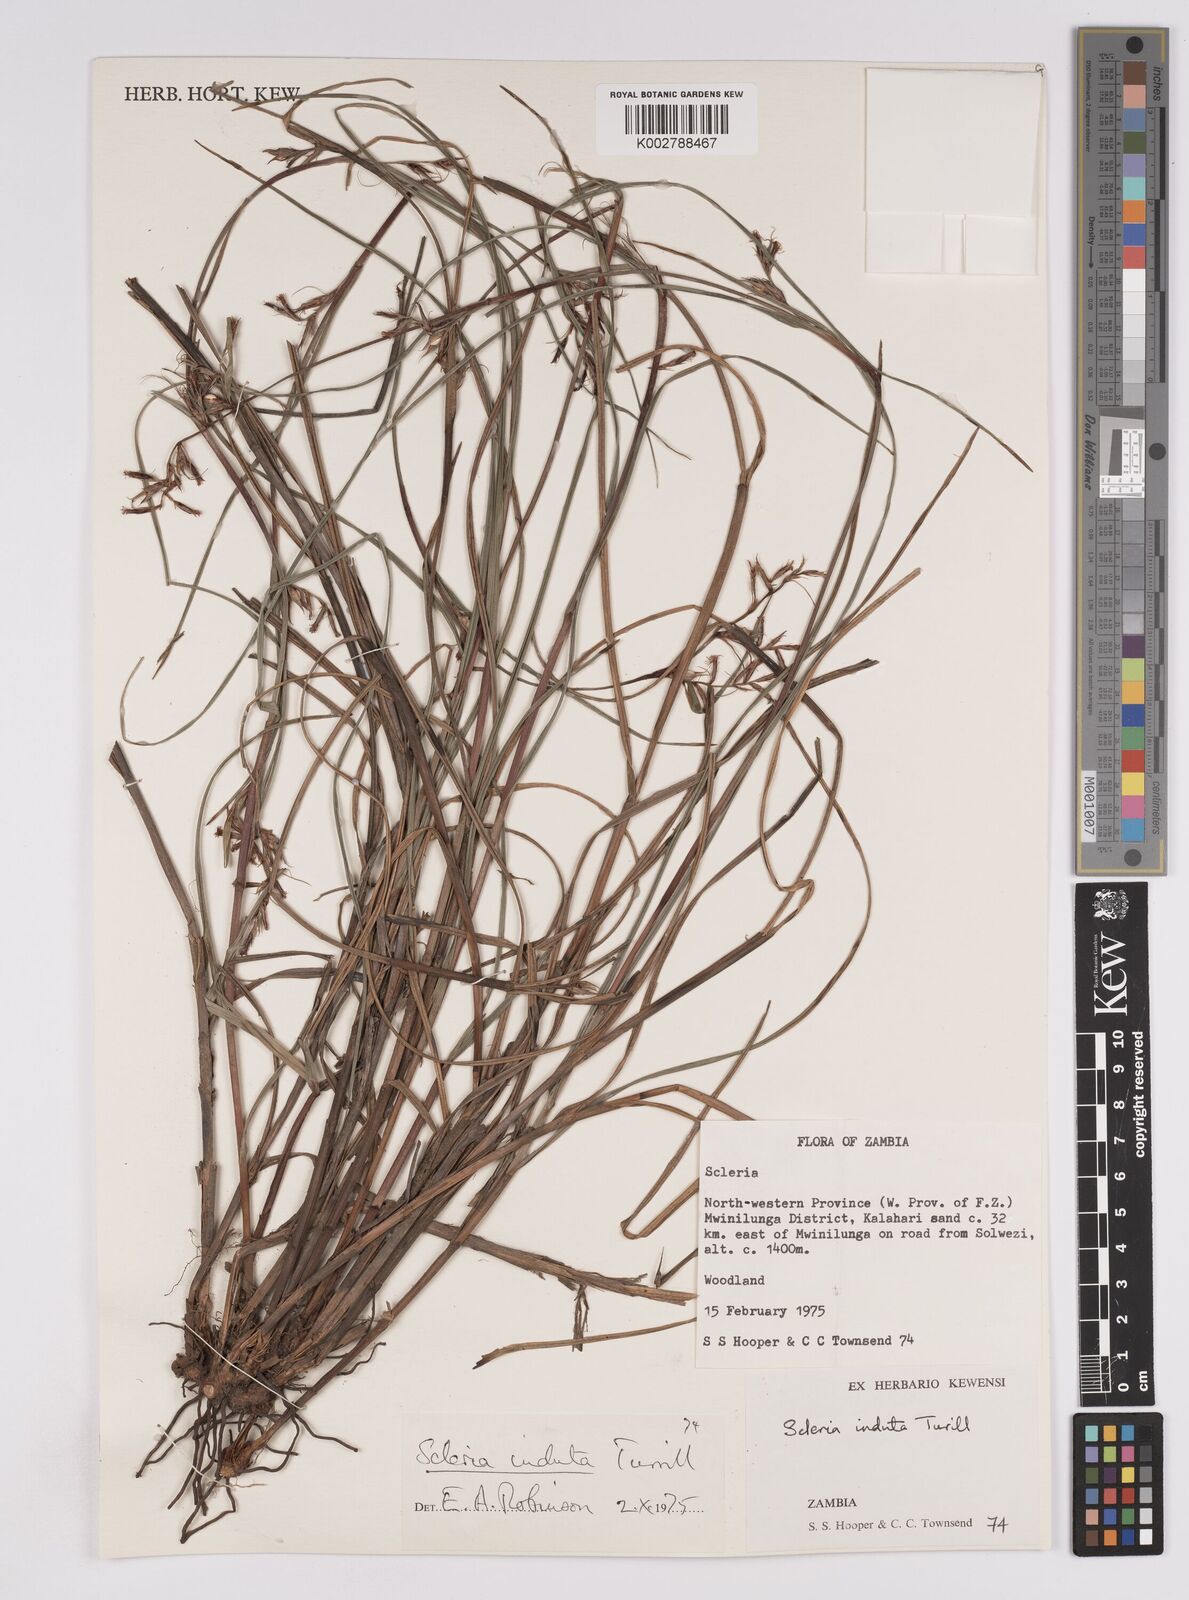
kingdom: Plantae
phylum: Tracheophyta
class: Liliopsida
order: Poales
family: Cyperaceae
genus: Scleria
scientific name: Scleria induta
